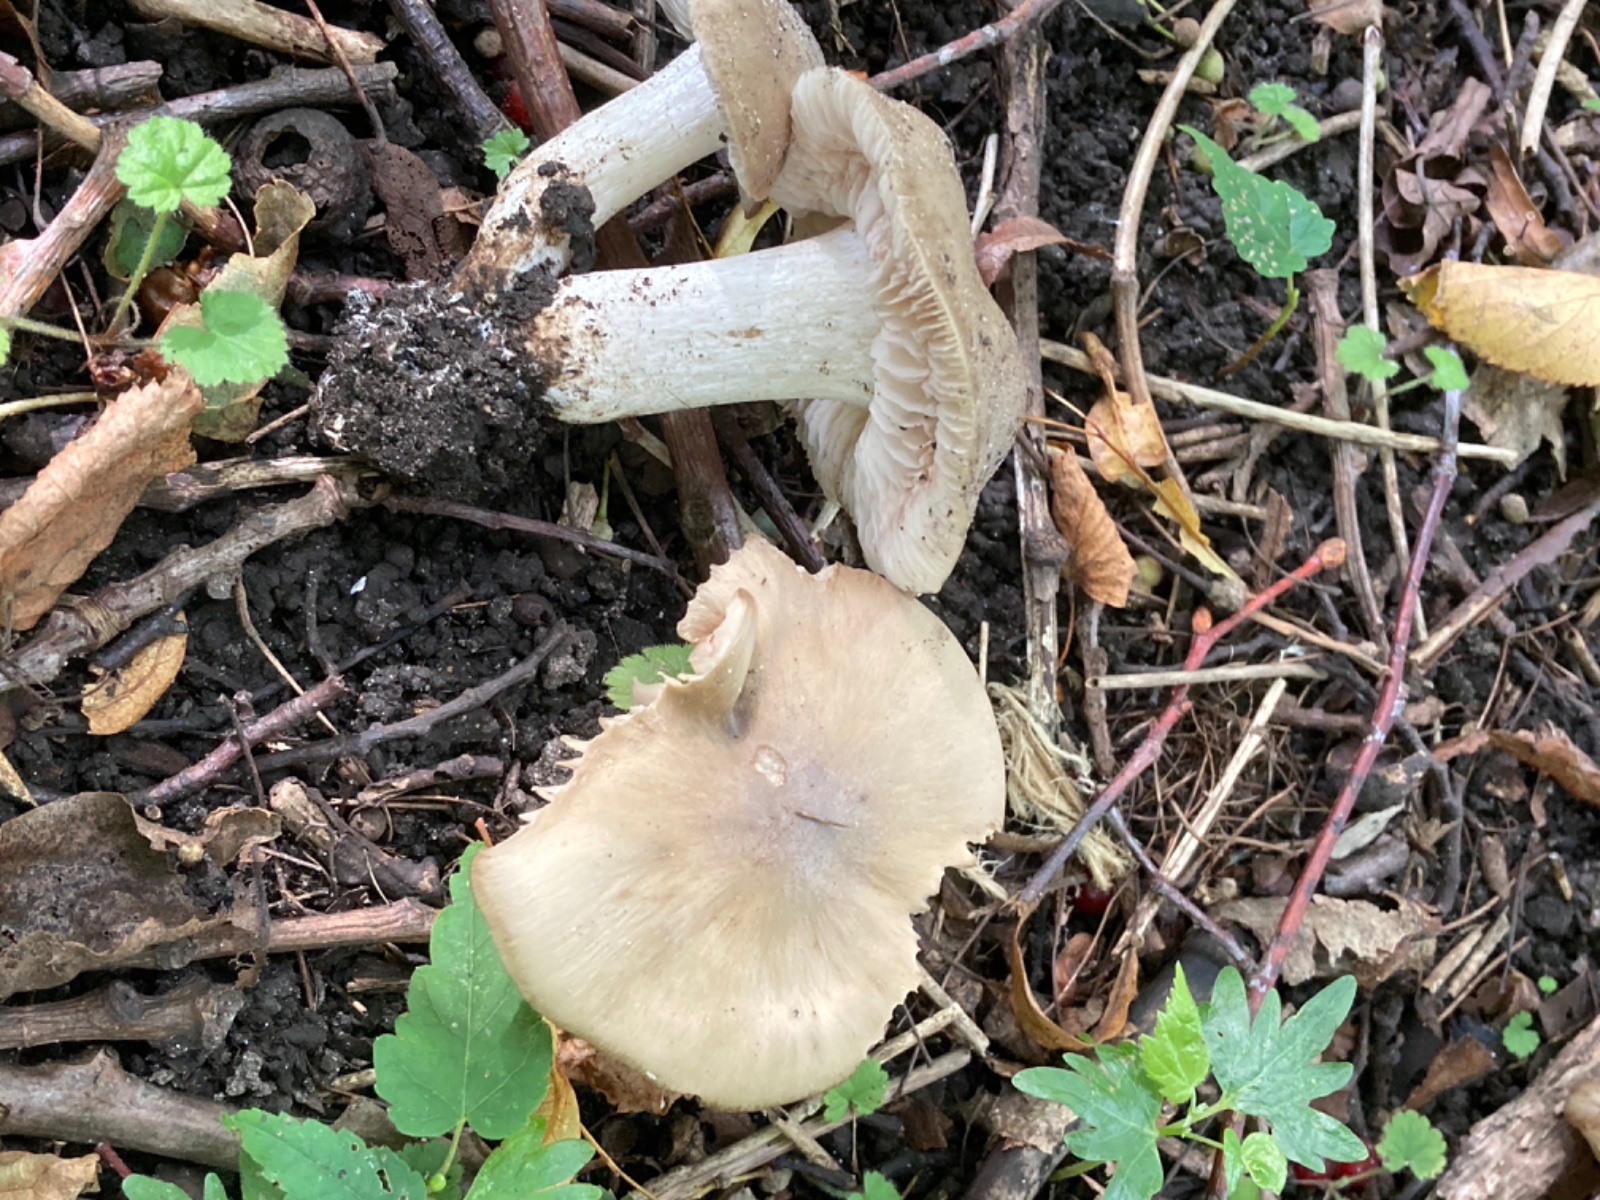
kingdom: Fungi
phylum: Basidiomycota
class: Agaricomycetes
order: Agaricales
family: Entolomataceae
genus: Entoloma
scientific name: Entoloma lividoalbum
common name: lysstokket rødblad
